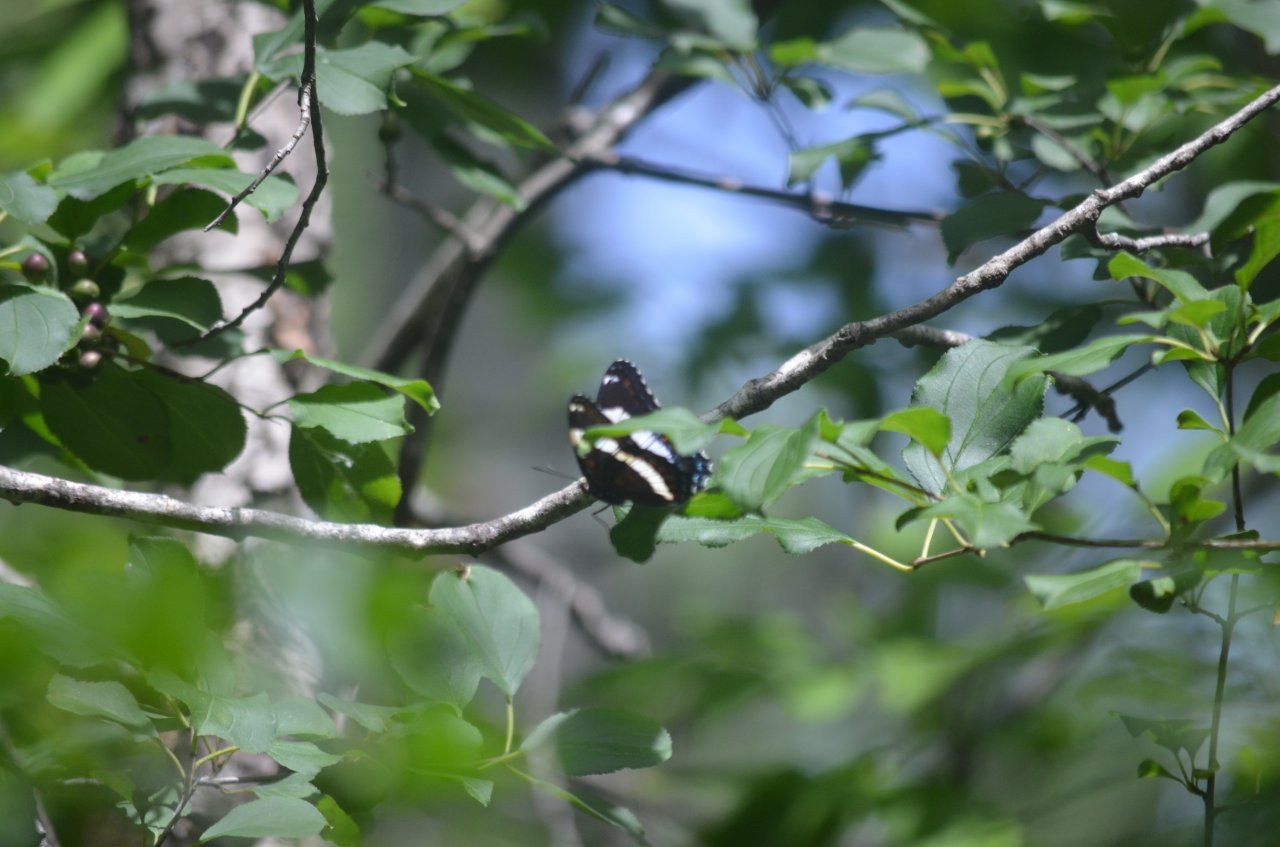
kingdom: Animalia
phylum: Arthropoda
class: Insecta
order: Lepidoptera
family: Nymphalidae
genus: Limenitis
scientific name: Limenitis arthemis
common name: Red-spotted Admiral
